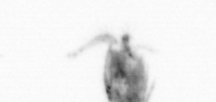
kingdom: Animalia
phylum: Arthropoda
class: Copepoda
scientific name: Copepoda
